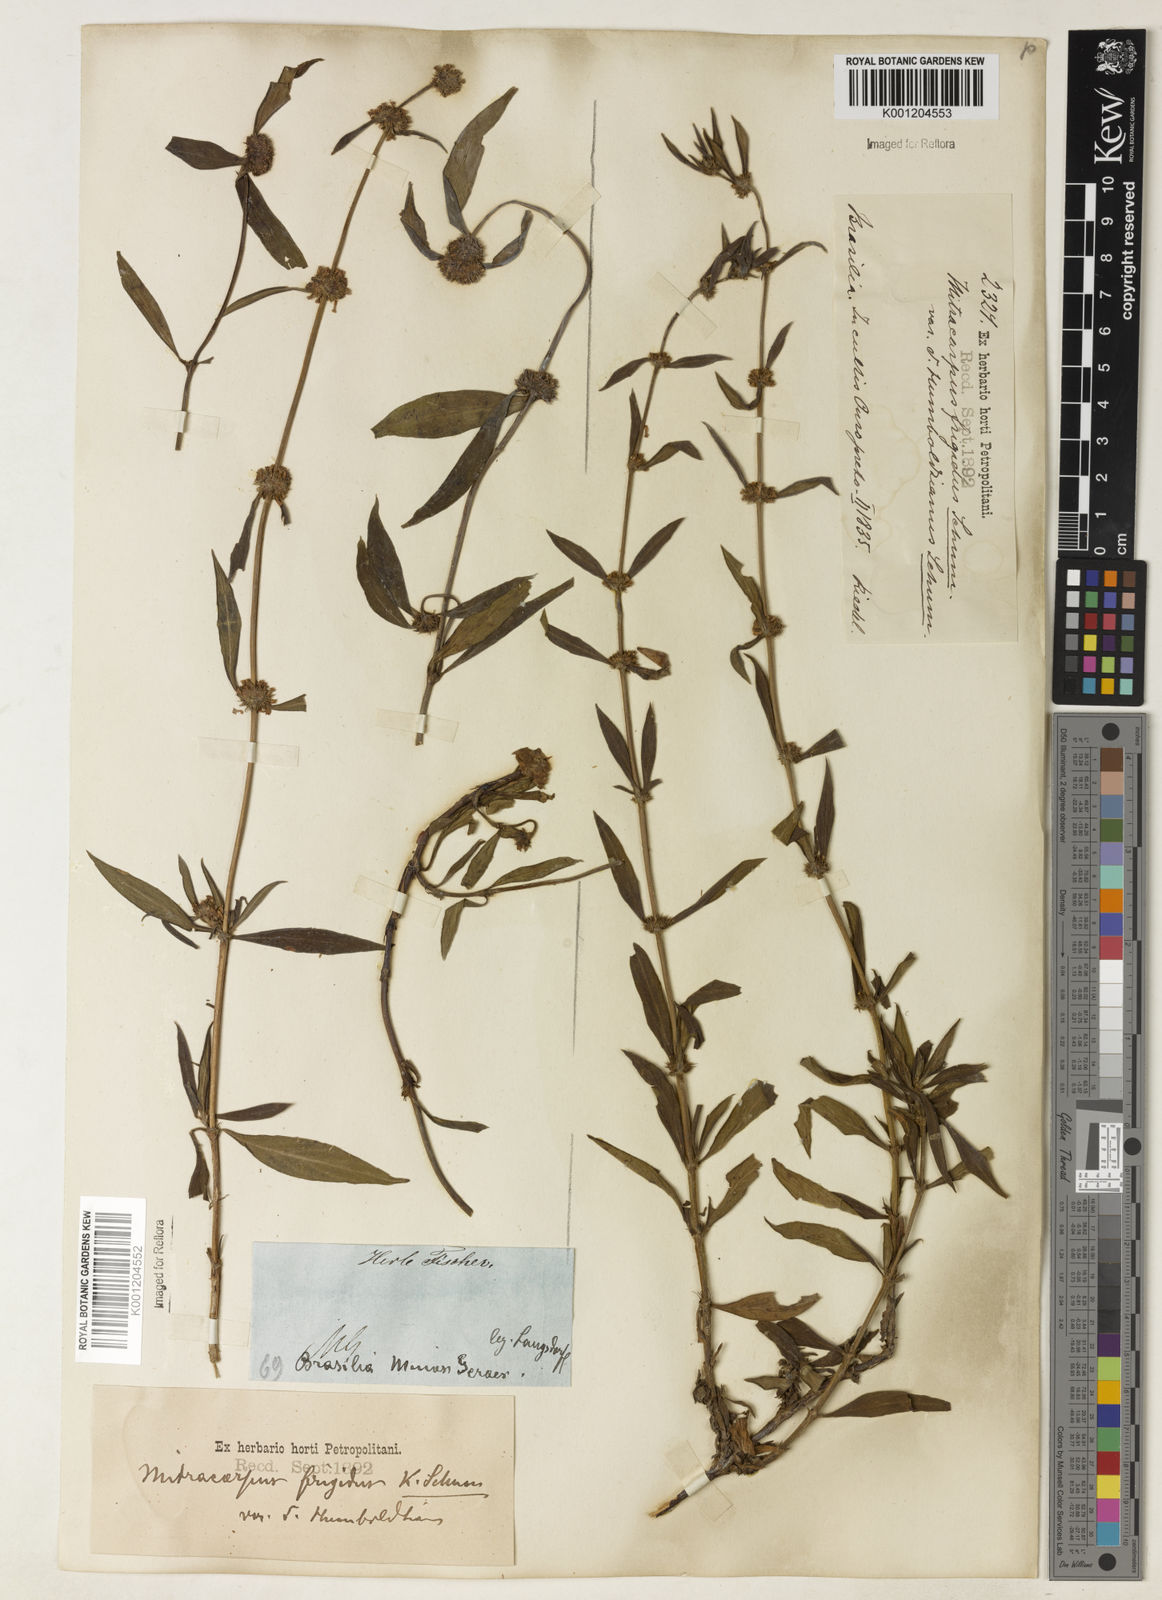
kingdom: Plantae
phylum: Tracheophyta
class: Magnoliopsida
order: Gentianales
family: Rubiaceae
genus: Mitracarpus
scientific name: Mitracarpus
